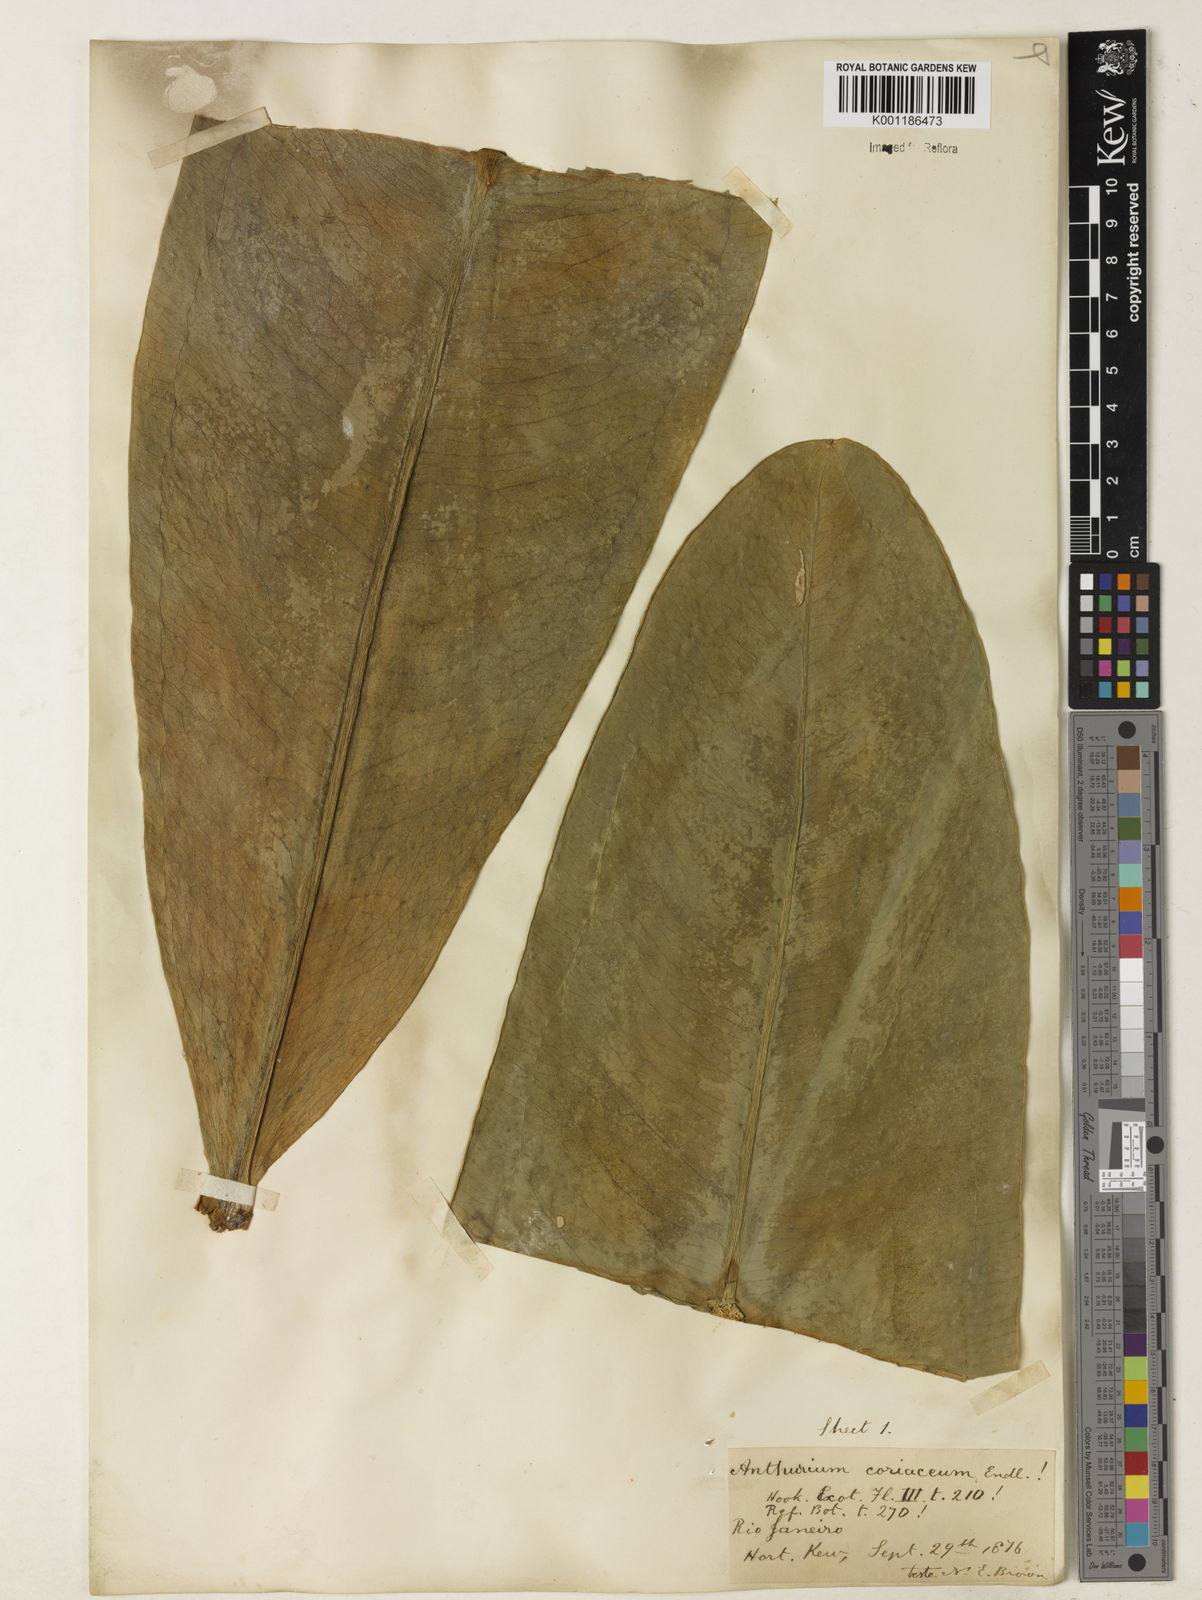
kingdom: Plantae
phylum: Tracheophyta
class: Liliopsida
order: Alismatales
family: Araceae
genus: Anthurium
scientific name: Anthurium coriaceum
